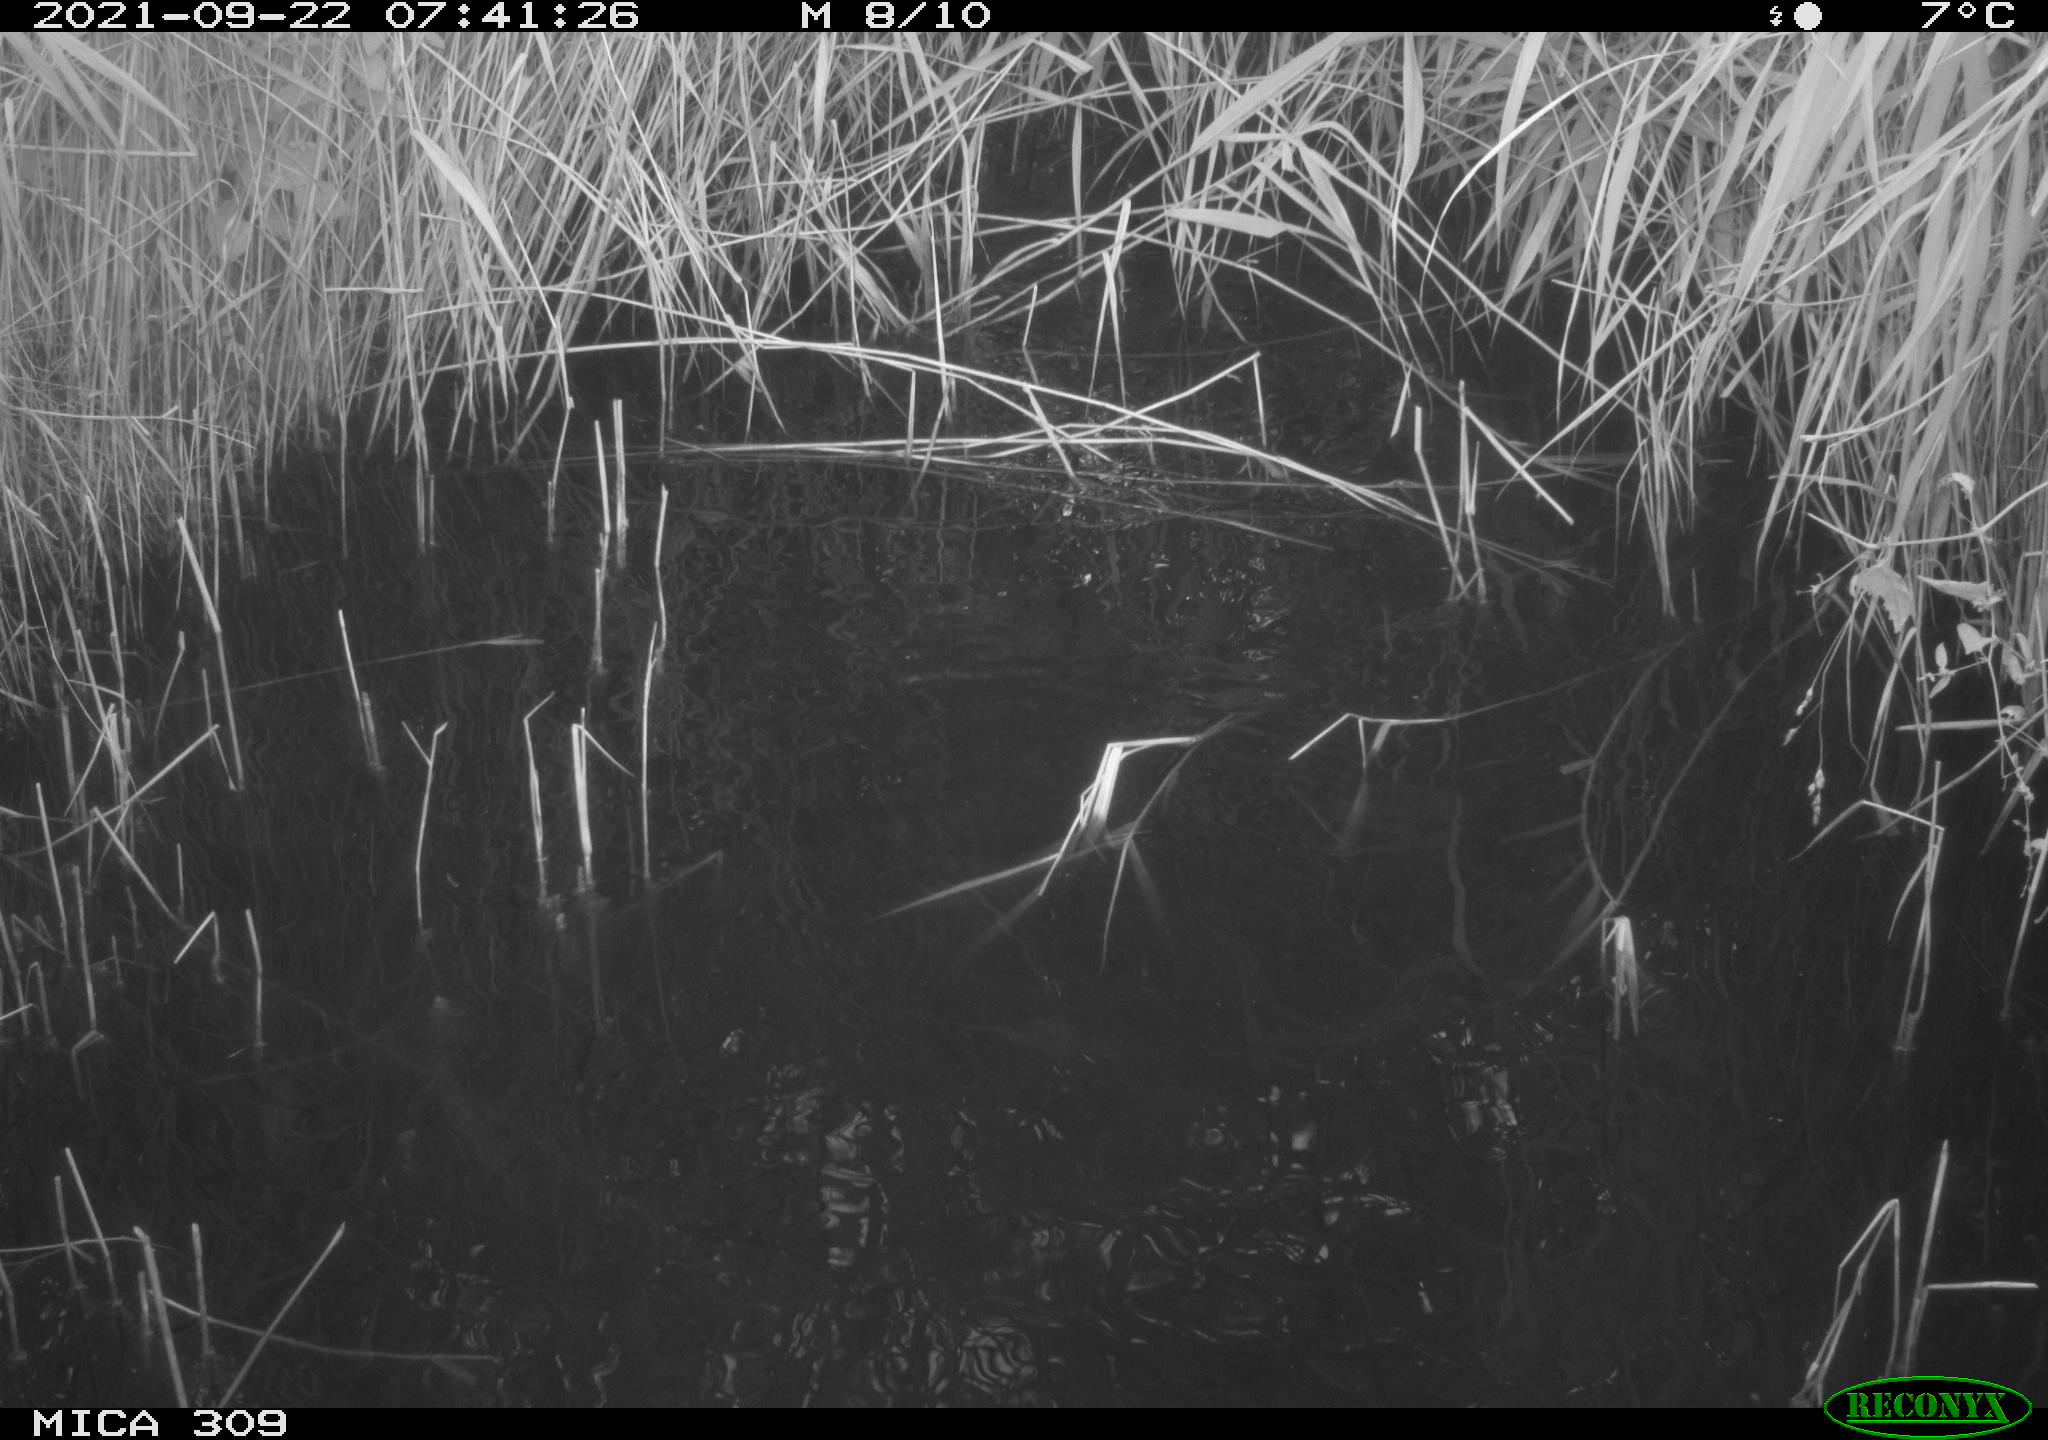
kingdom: Animalia
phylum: Chordata
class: Aves
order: Gruiformes
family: Rallidae
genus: Gallinula
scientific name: Gallinula chloropus
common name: Common moorhen
